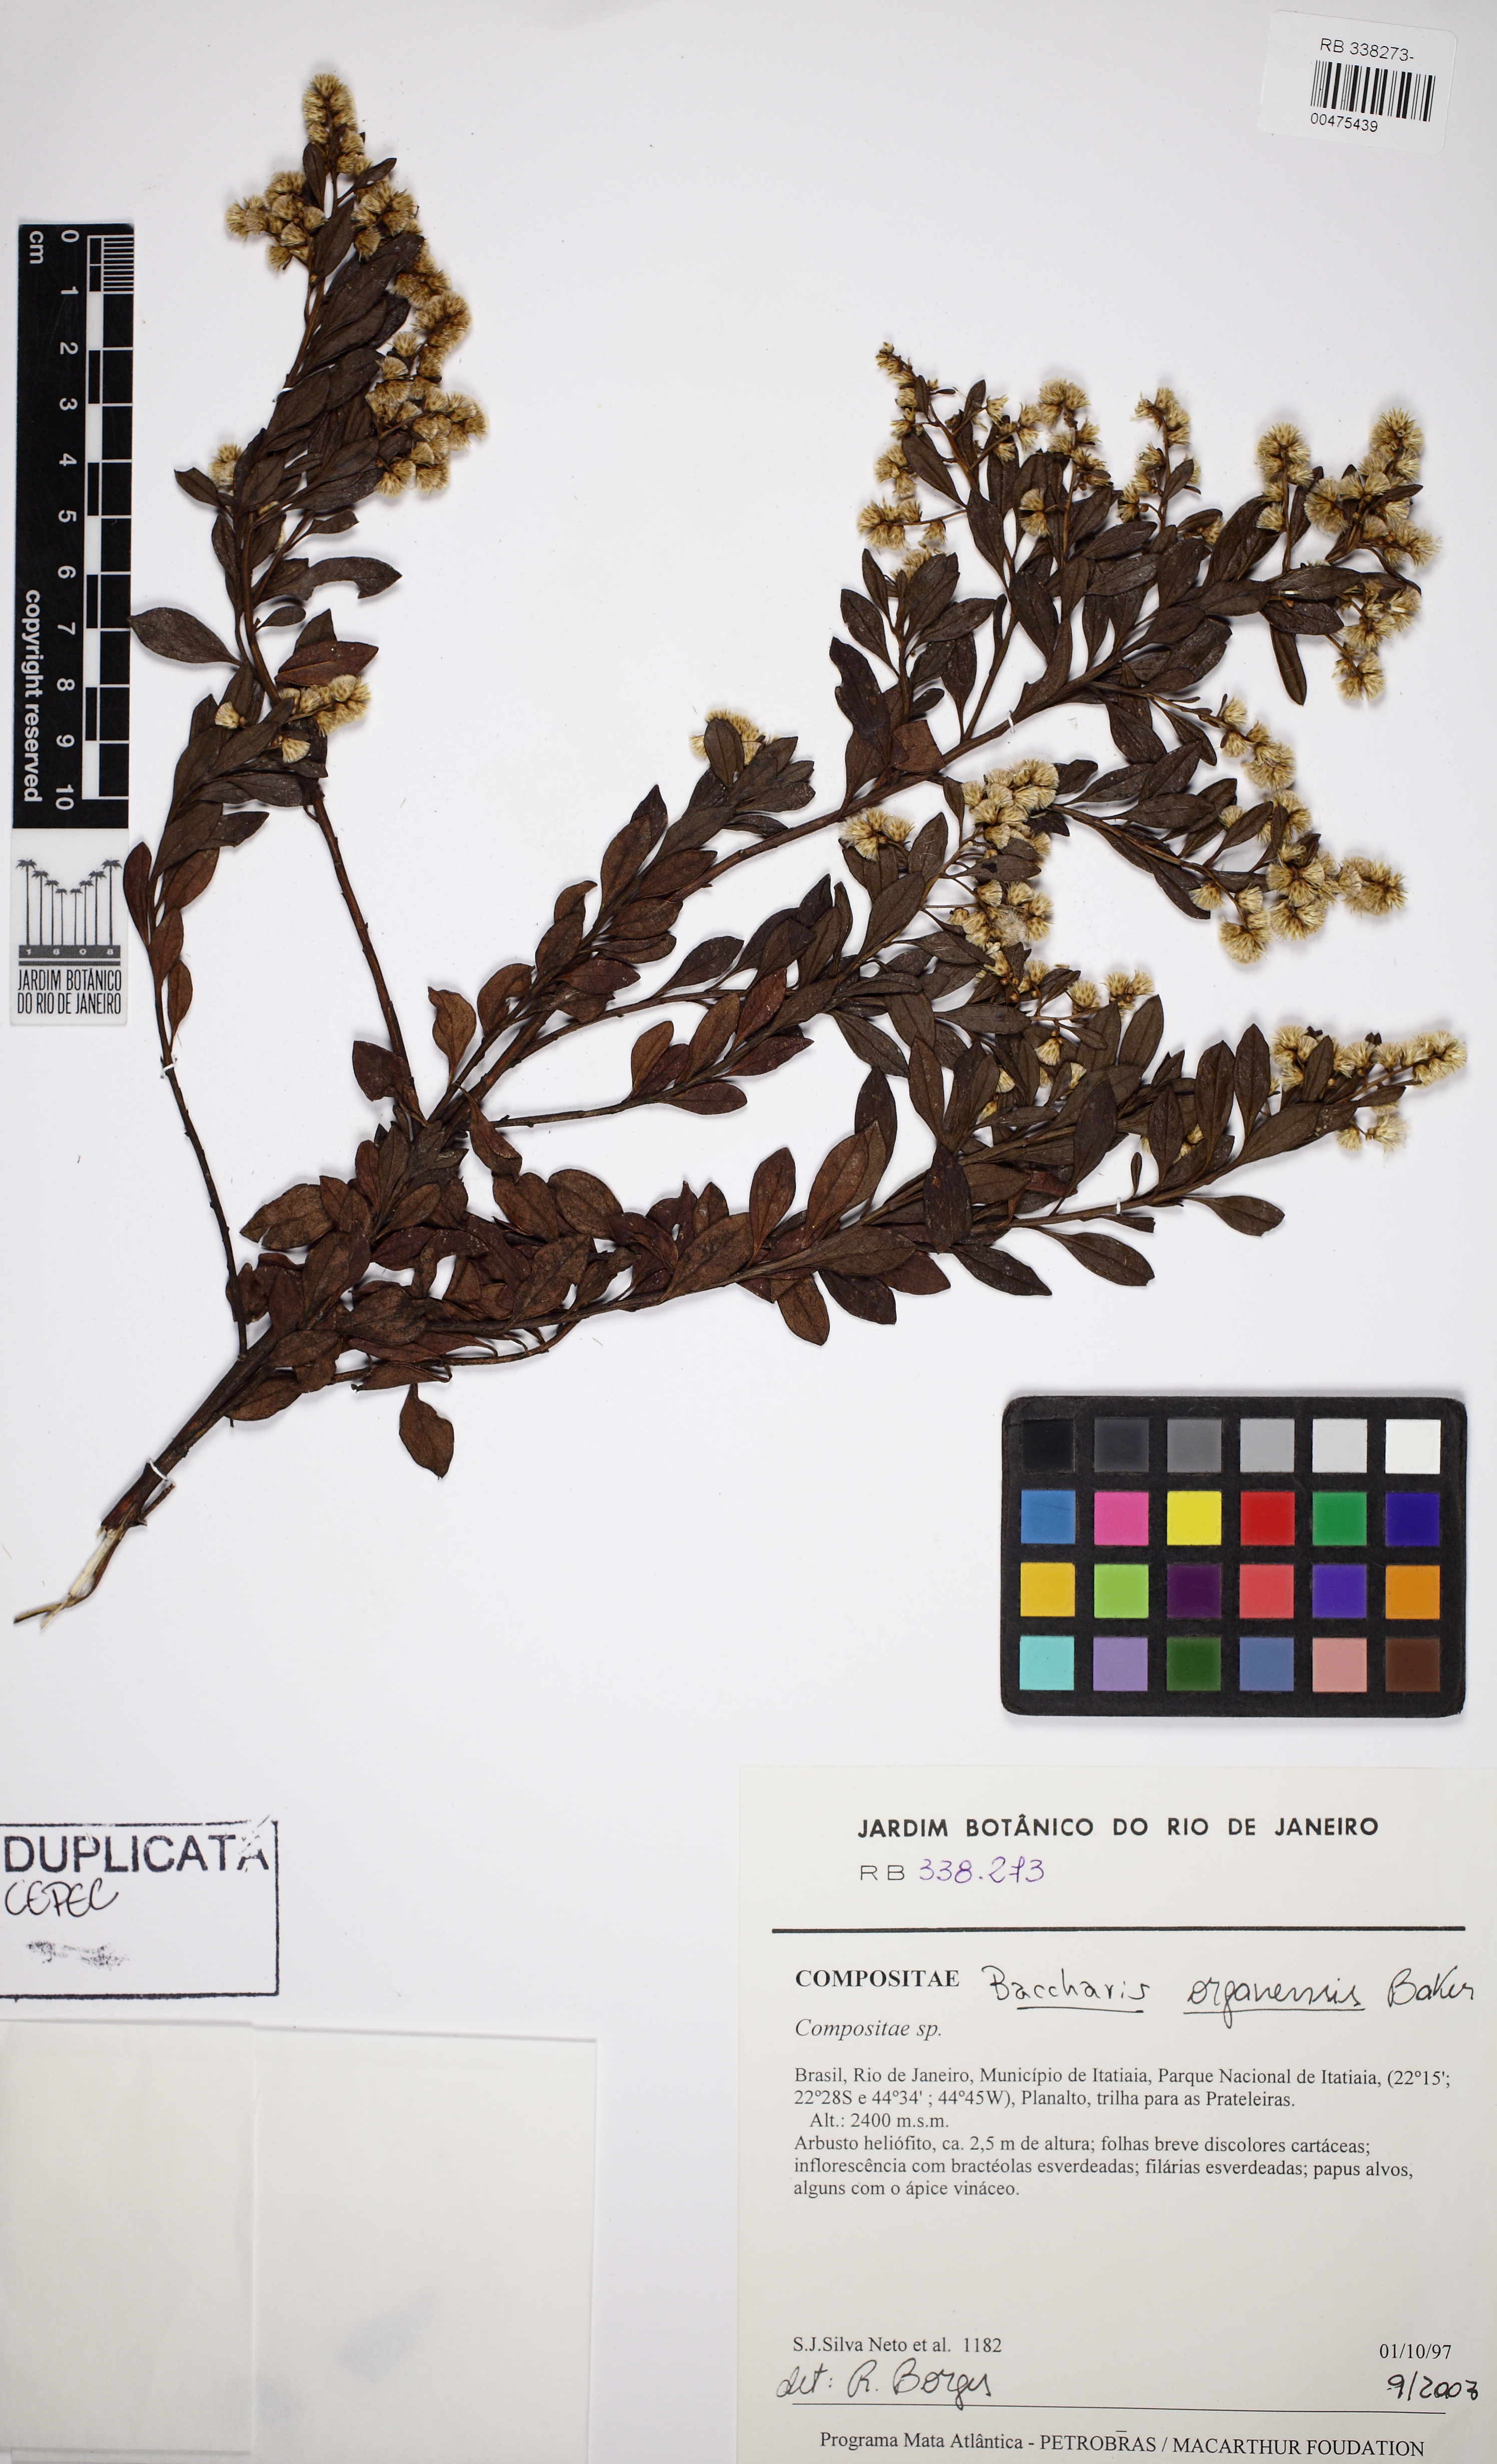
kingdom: Plantae
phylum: Tracheophyta
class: Magnoliopsida
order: Asterales
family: Asteraceae
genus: Baccharis
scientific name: Baccharis organensis
